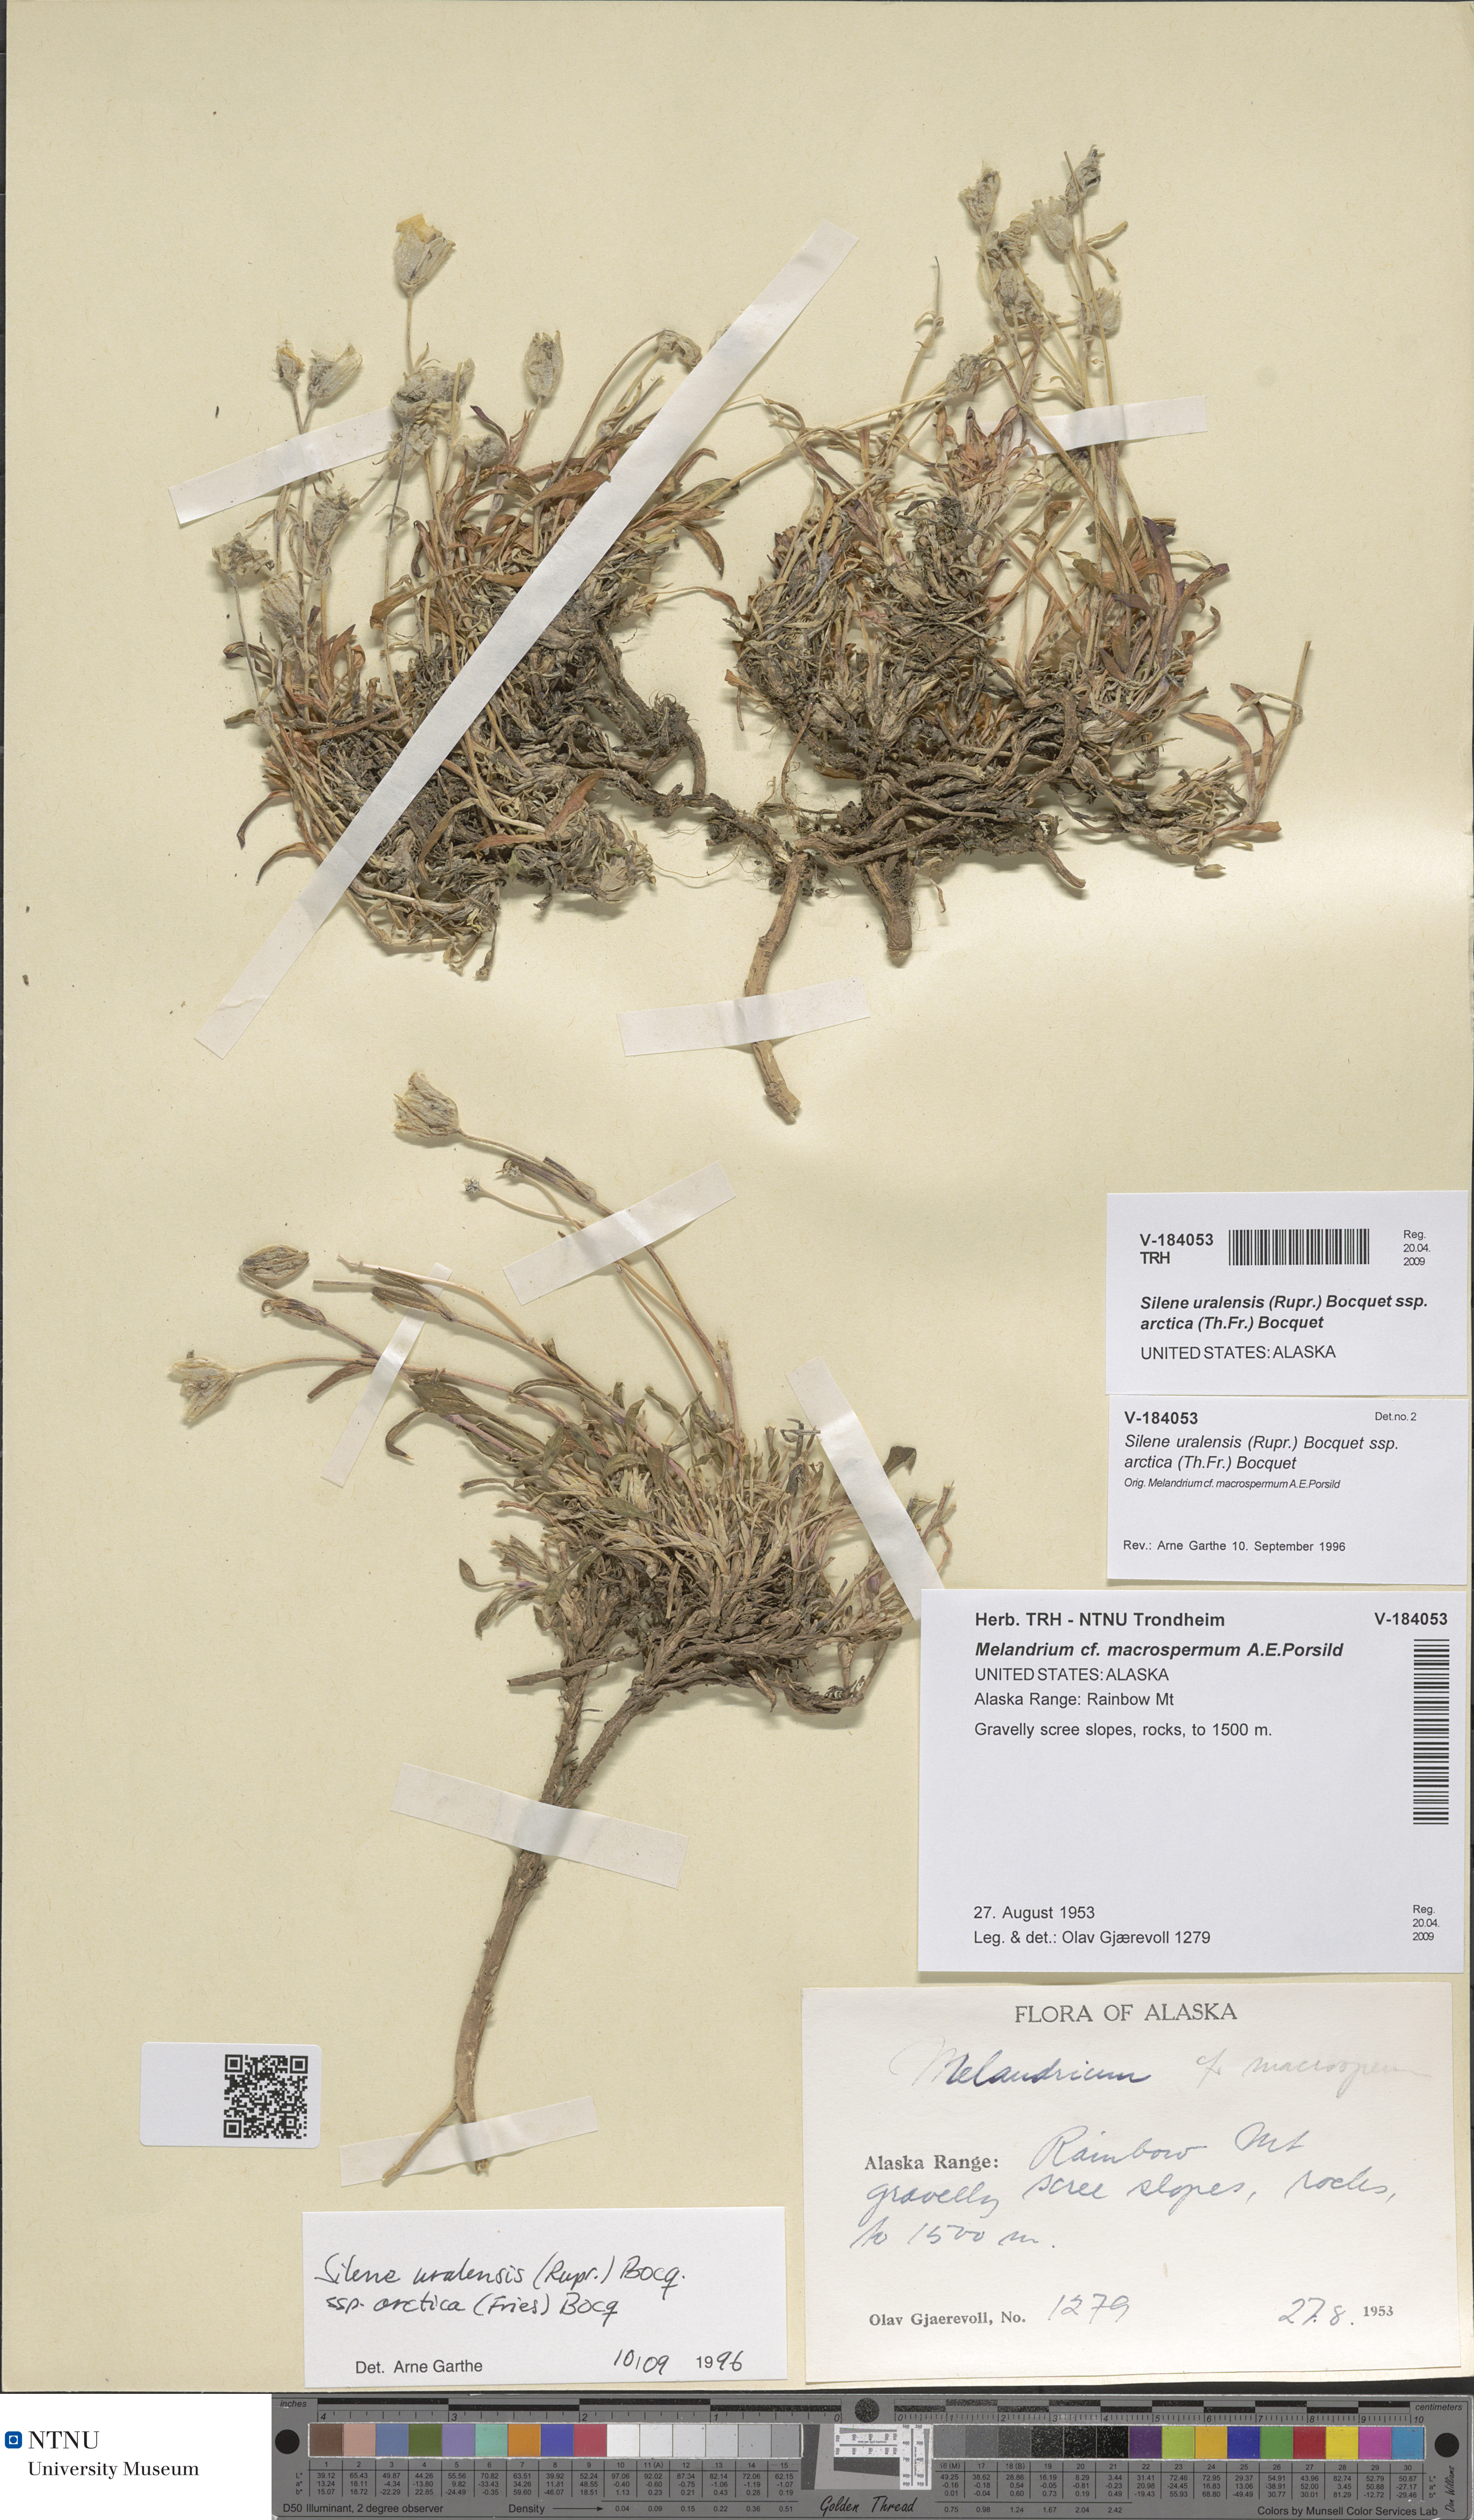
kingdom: Plantae
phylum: Tracheophyta
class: Magnoliopsida
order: Caryophyllales
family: Caryophyllaceae
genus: Silene
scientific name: Silene uralensis
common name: Nodding campion
